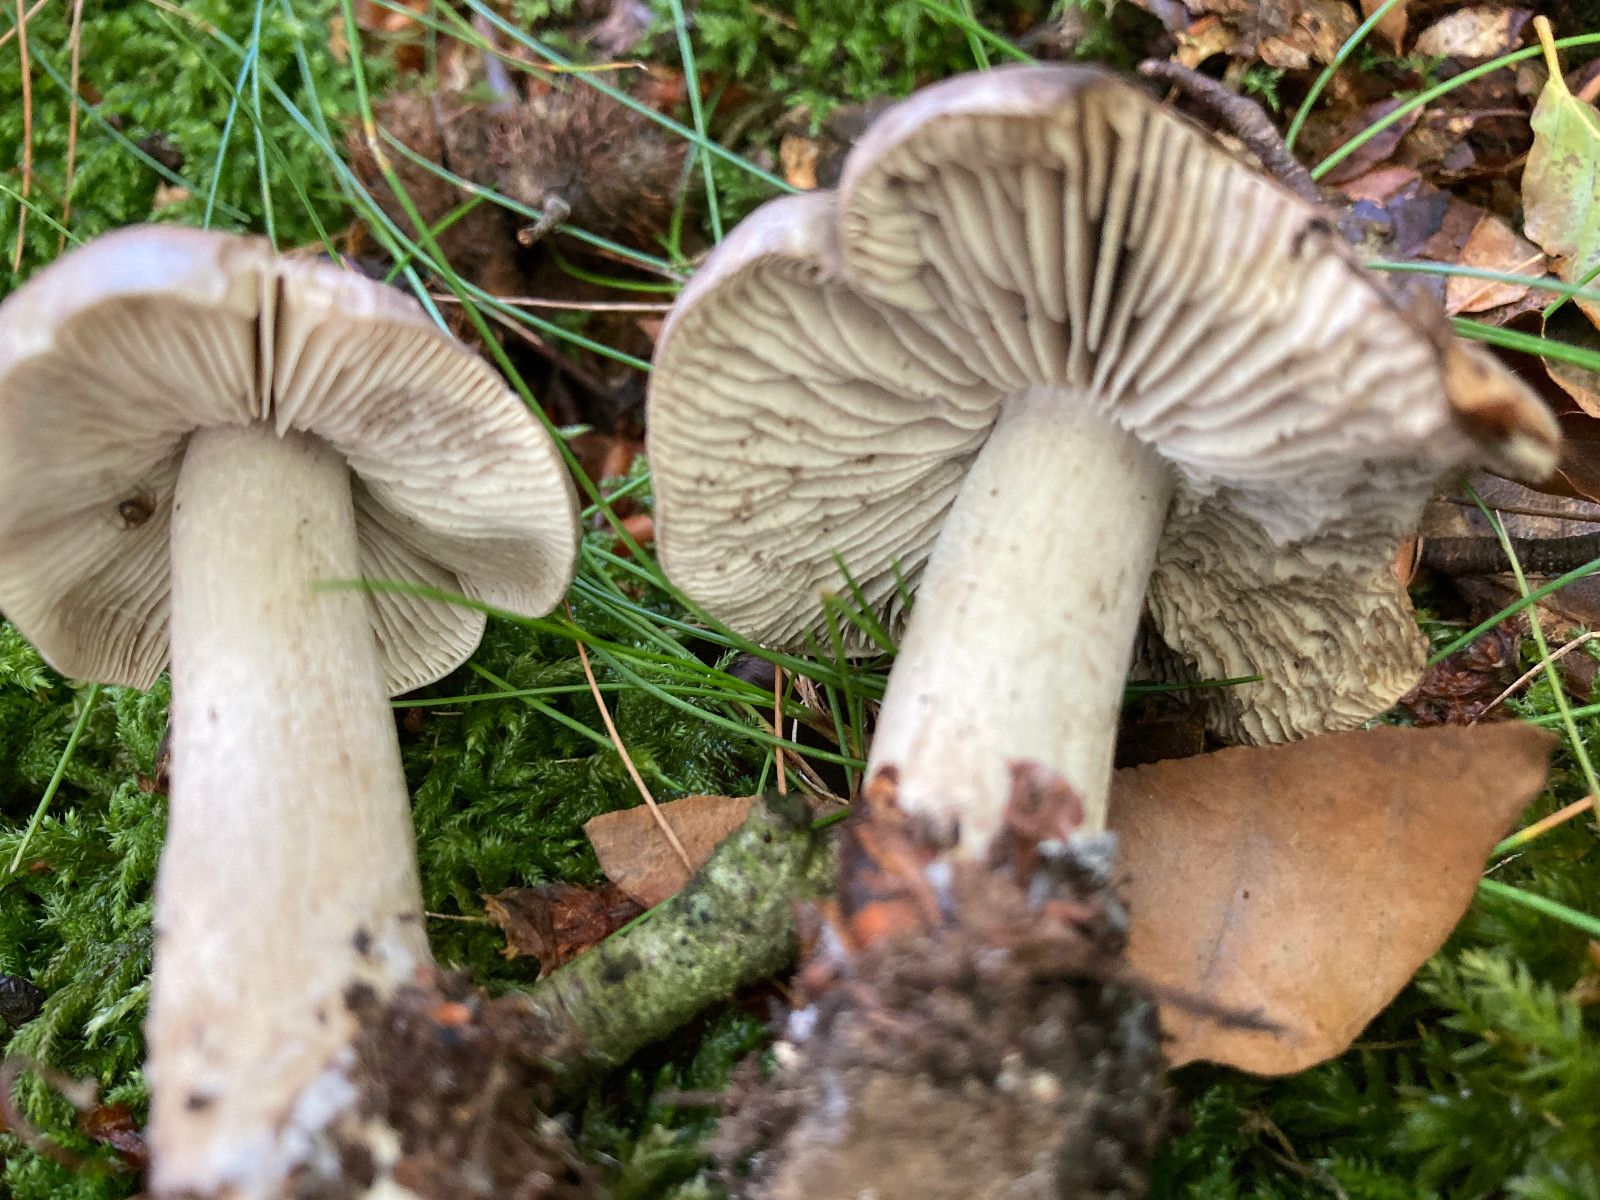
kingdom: Fungi
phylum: Basidiomycota
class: Agaricomycetes
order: Agaricales
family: Tricholomataceae
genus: Tricholoma
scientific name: Tricholoma sciodes
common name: stribet ridderhat
